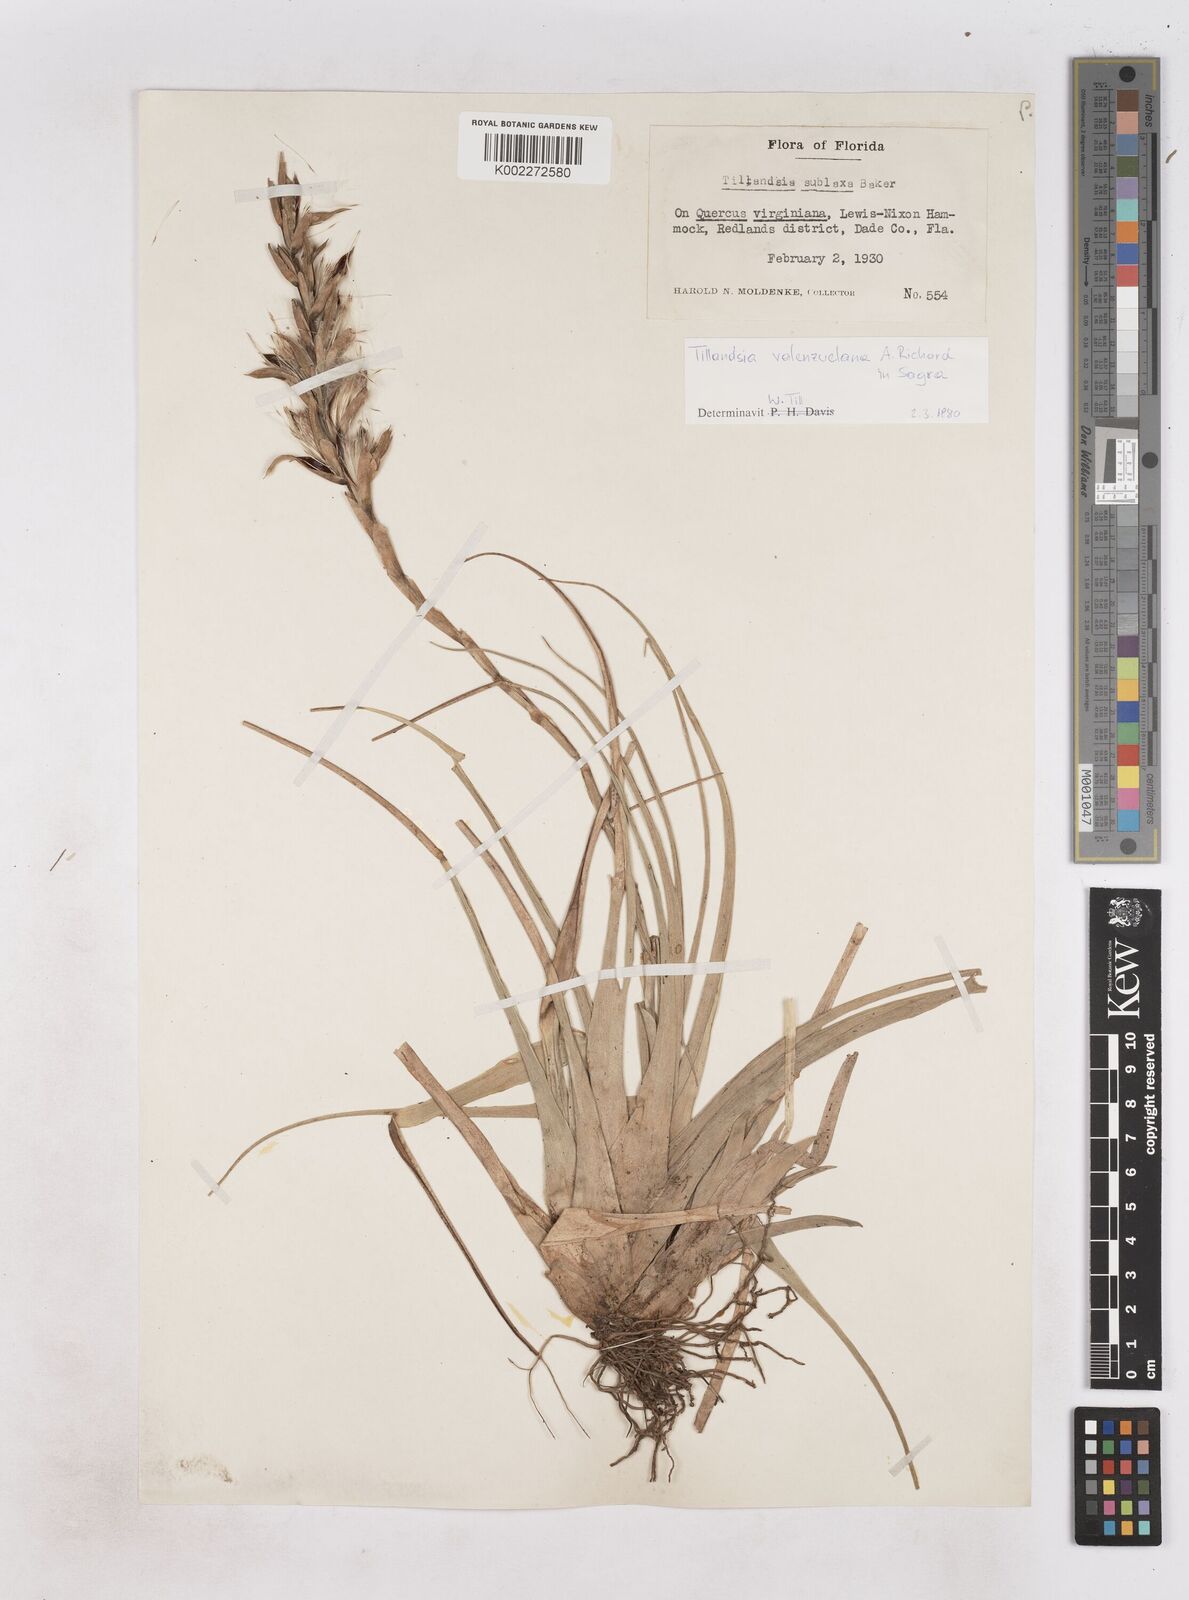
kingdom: Plantae
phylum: Tracheophyta
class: Liliopsida
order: Poales
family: Bromeliaceae
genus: Tillandsia
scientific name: Tillandsia variabilis
